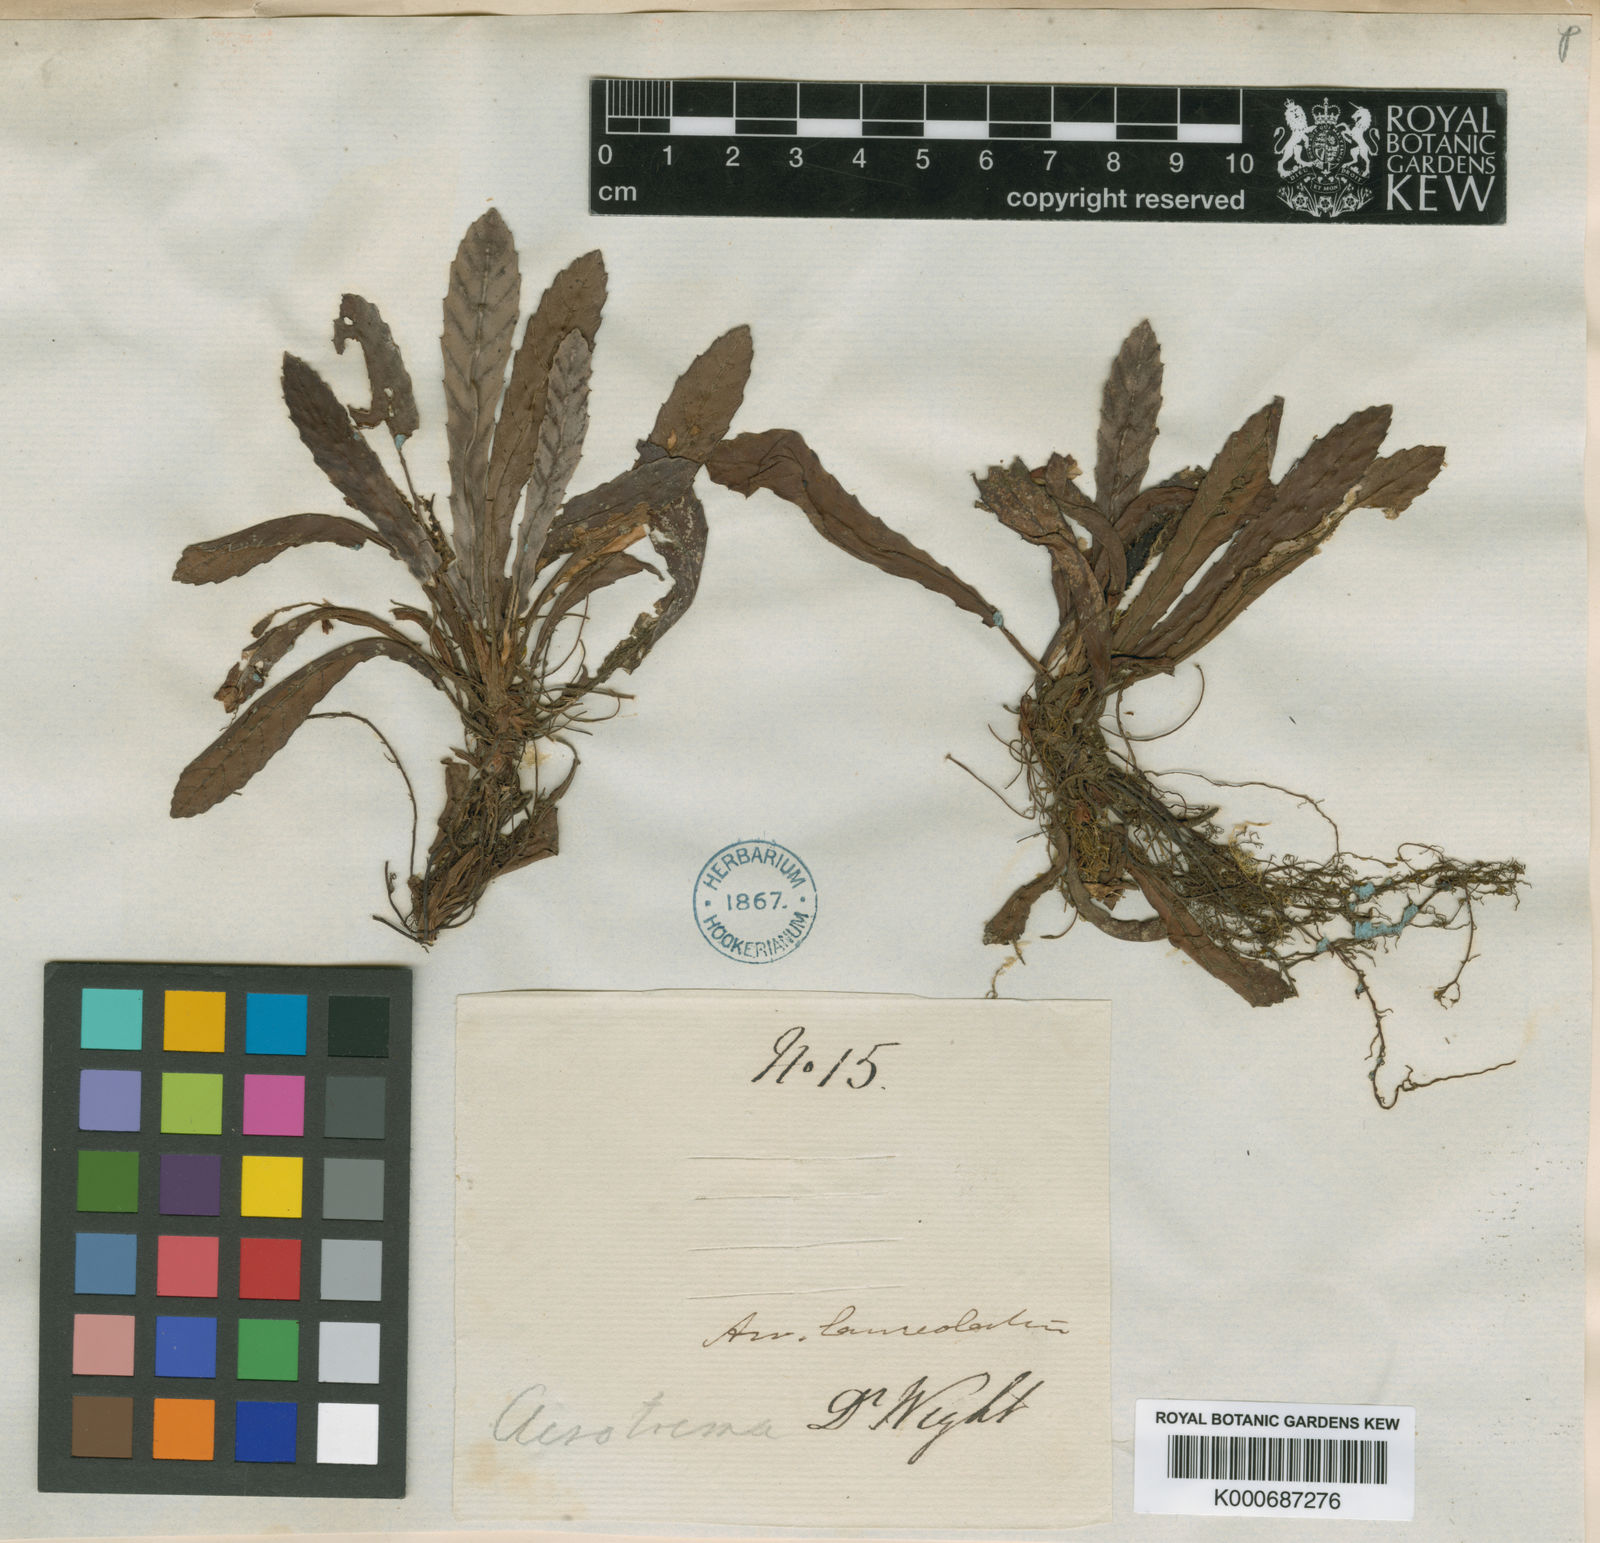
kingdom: Plantae
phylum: Tracheophyta
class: Magnoliopsida
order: Dilleniales
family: Dilleniaceae
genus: Acrotrema
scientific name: Acrotrema lanceolatum
